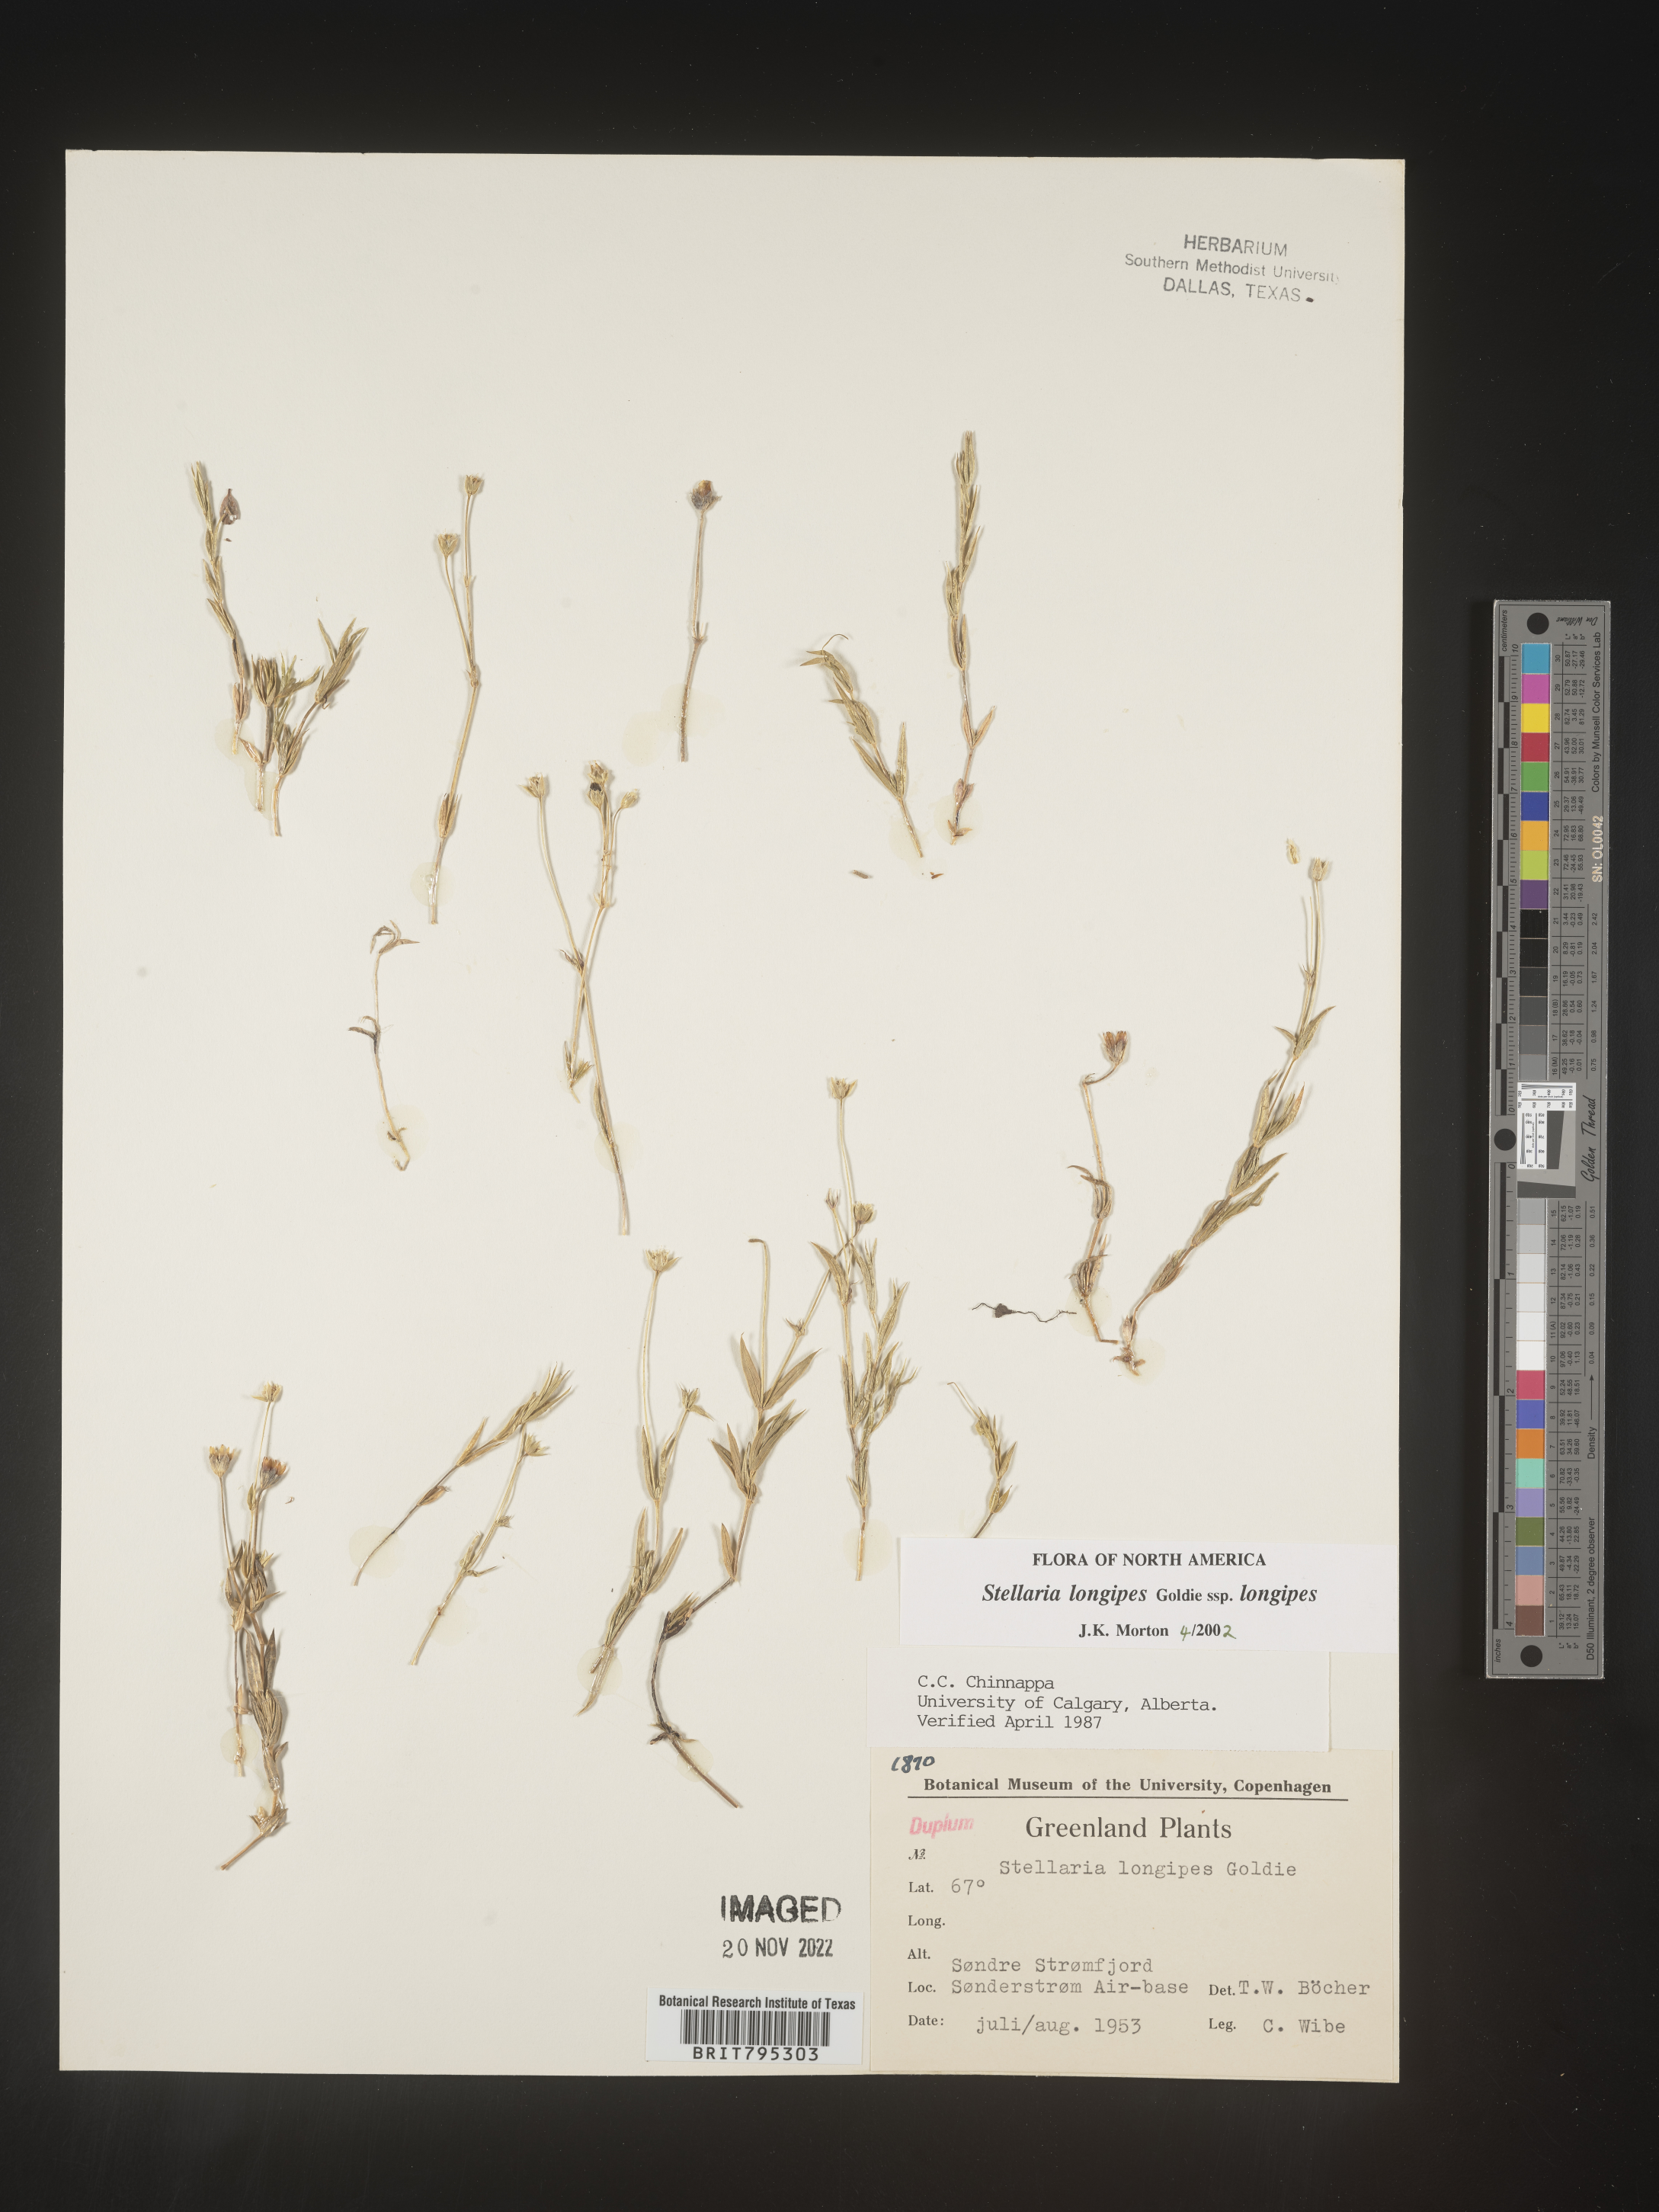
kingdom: Plantae
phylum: Tracheophyta
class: Magnoliopsida
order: Caryophyllales
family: Caryophyllaceae
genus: Stellaria
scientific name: Stellaria
